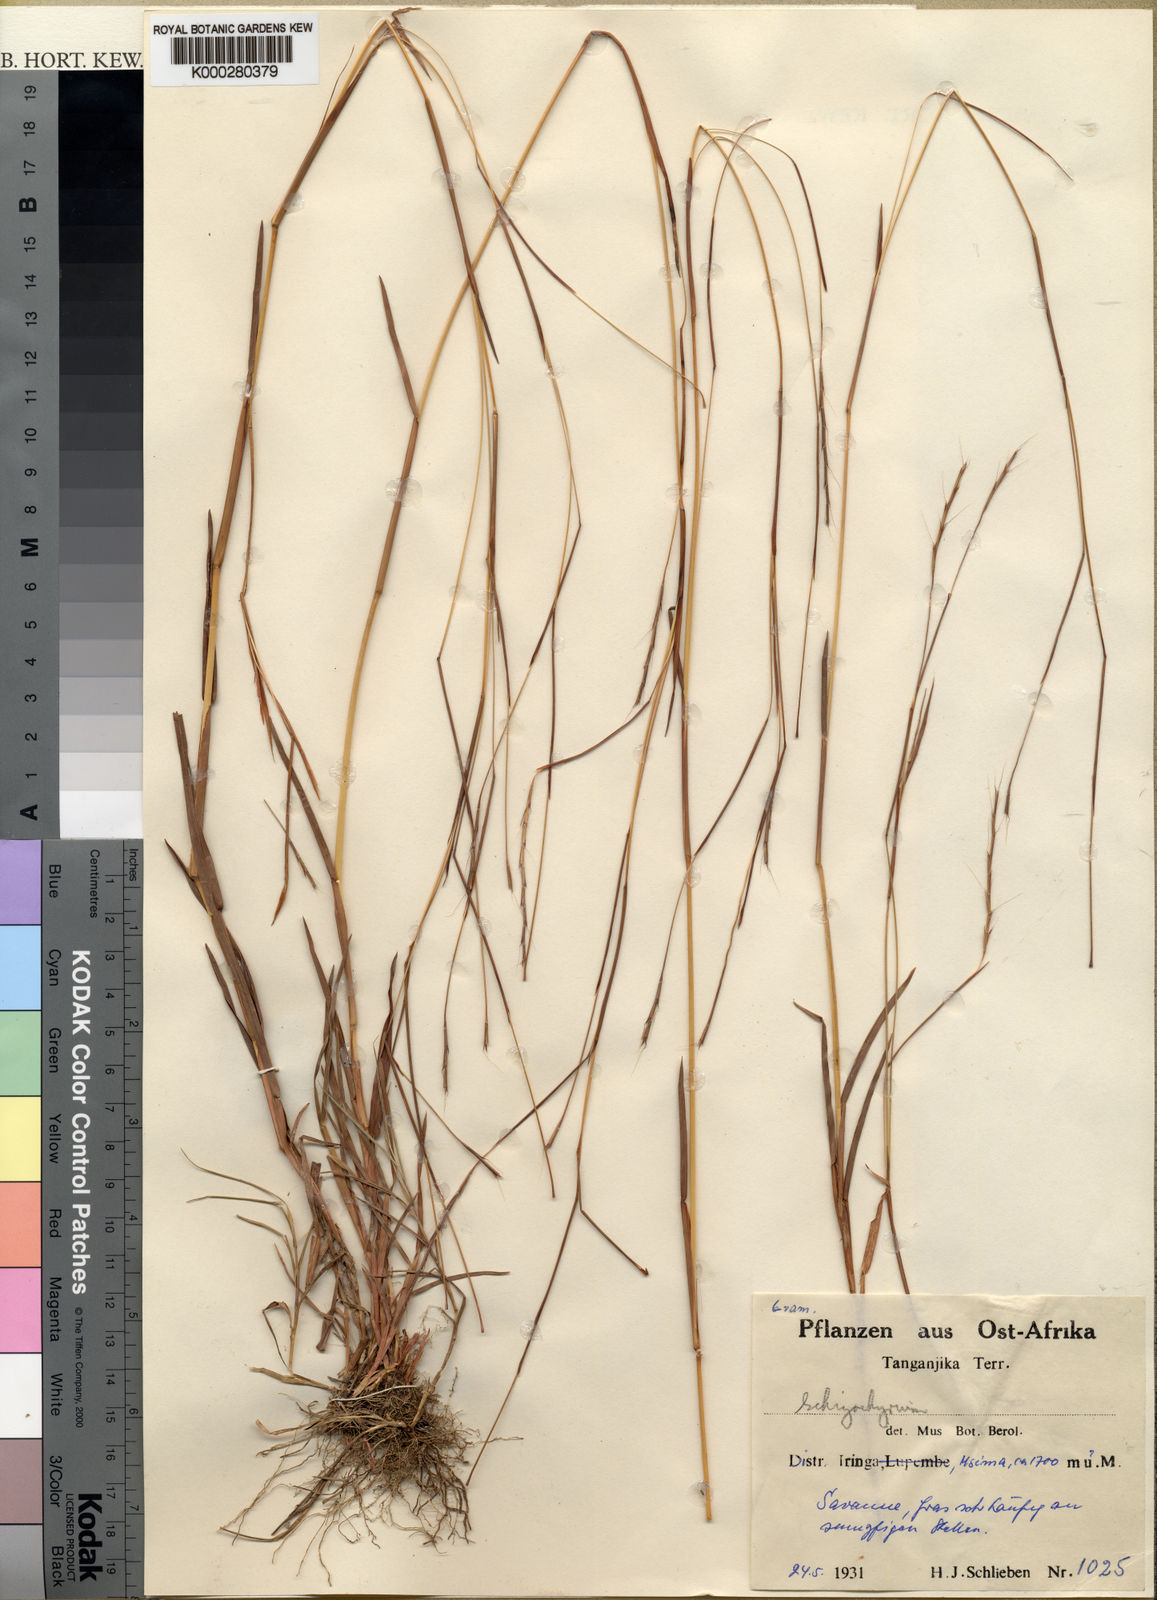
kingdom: Plantae
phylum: Tracheophyta
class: Liliopsida
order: Poales
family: Poaceae
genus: Schizachyrium
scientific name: Schizachyrium sanguineum
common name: Crimson bluestem
